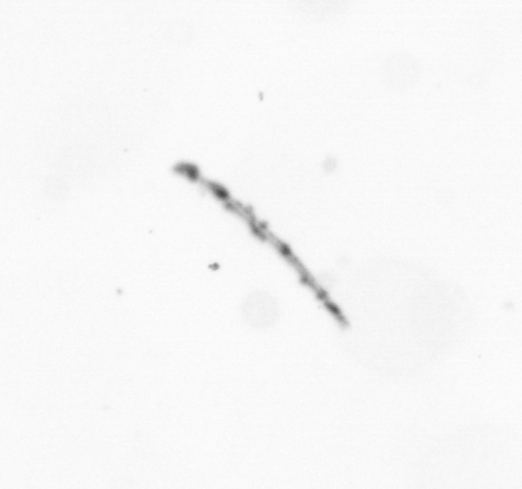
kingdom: Chromista
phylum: Ochrophyta
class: Bacillariophyceae
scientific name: Bacillariophyceae
